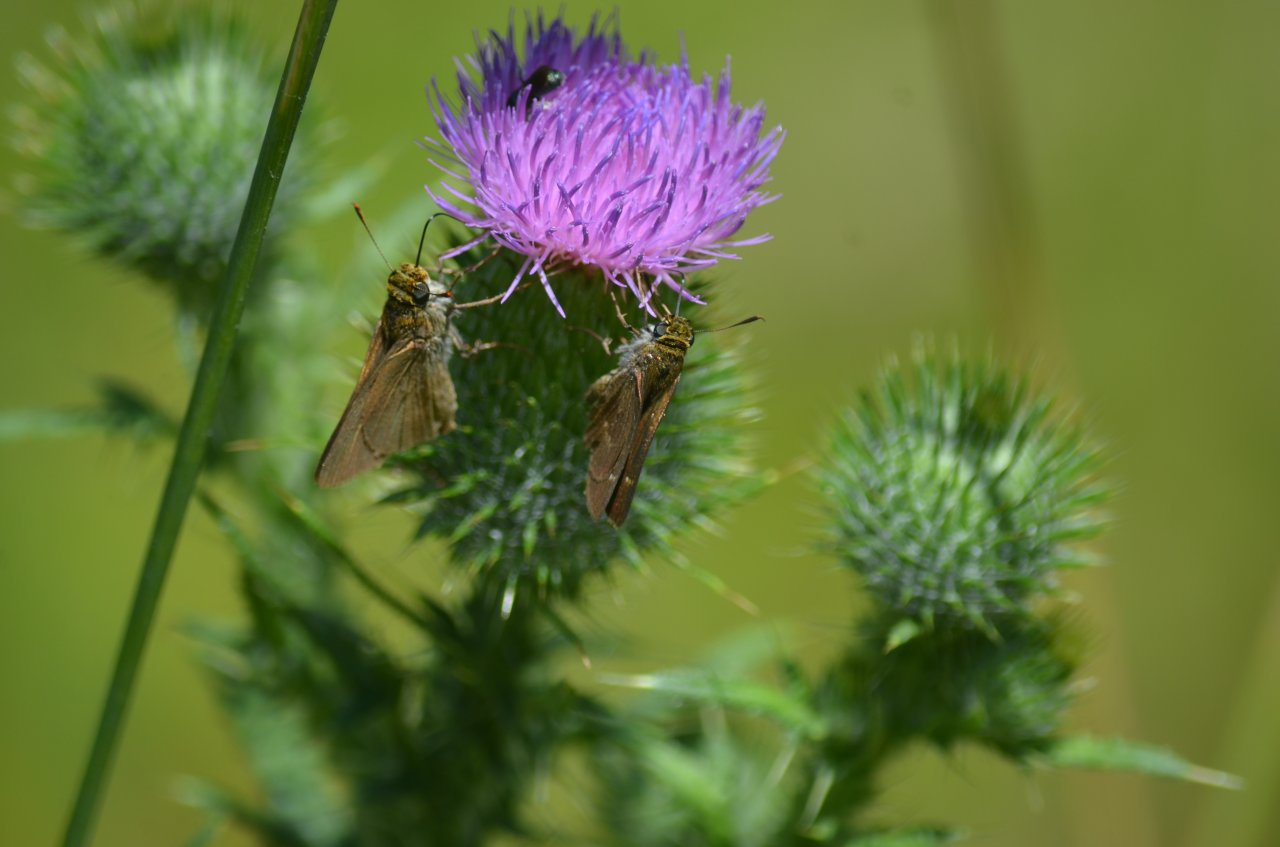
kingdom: Animalia
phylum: Arthropoda
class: Insecta
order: Lepidoptera
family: Hesperiidae
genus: Polites
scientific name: Polites themistocles
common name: Tawny-edged Skipper
